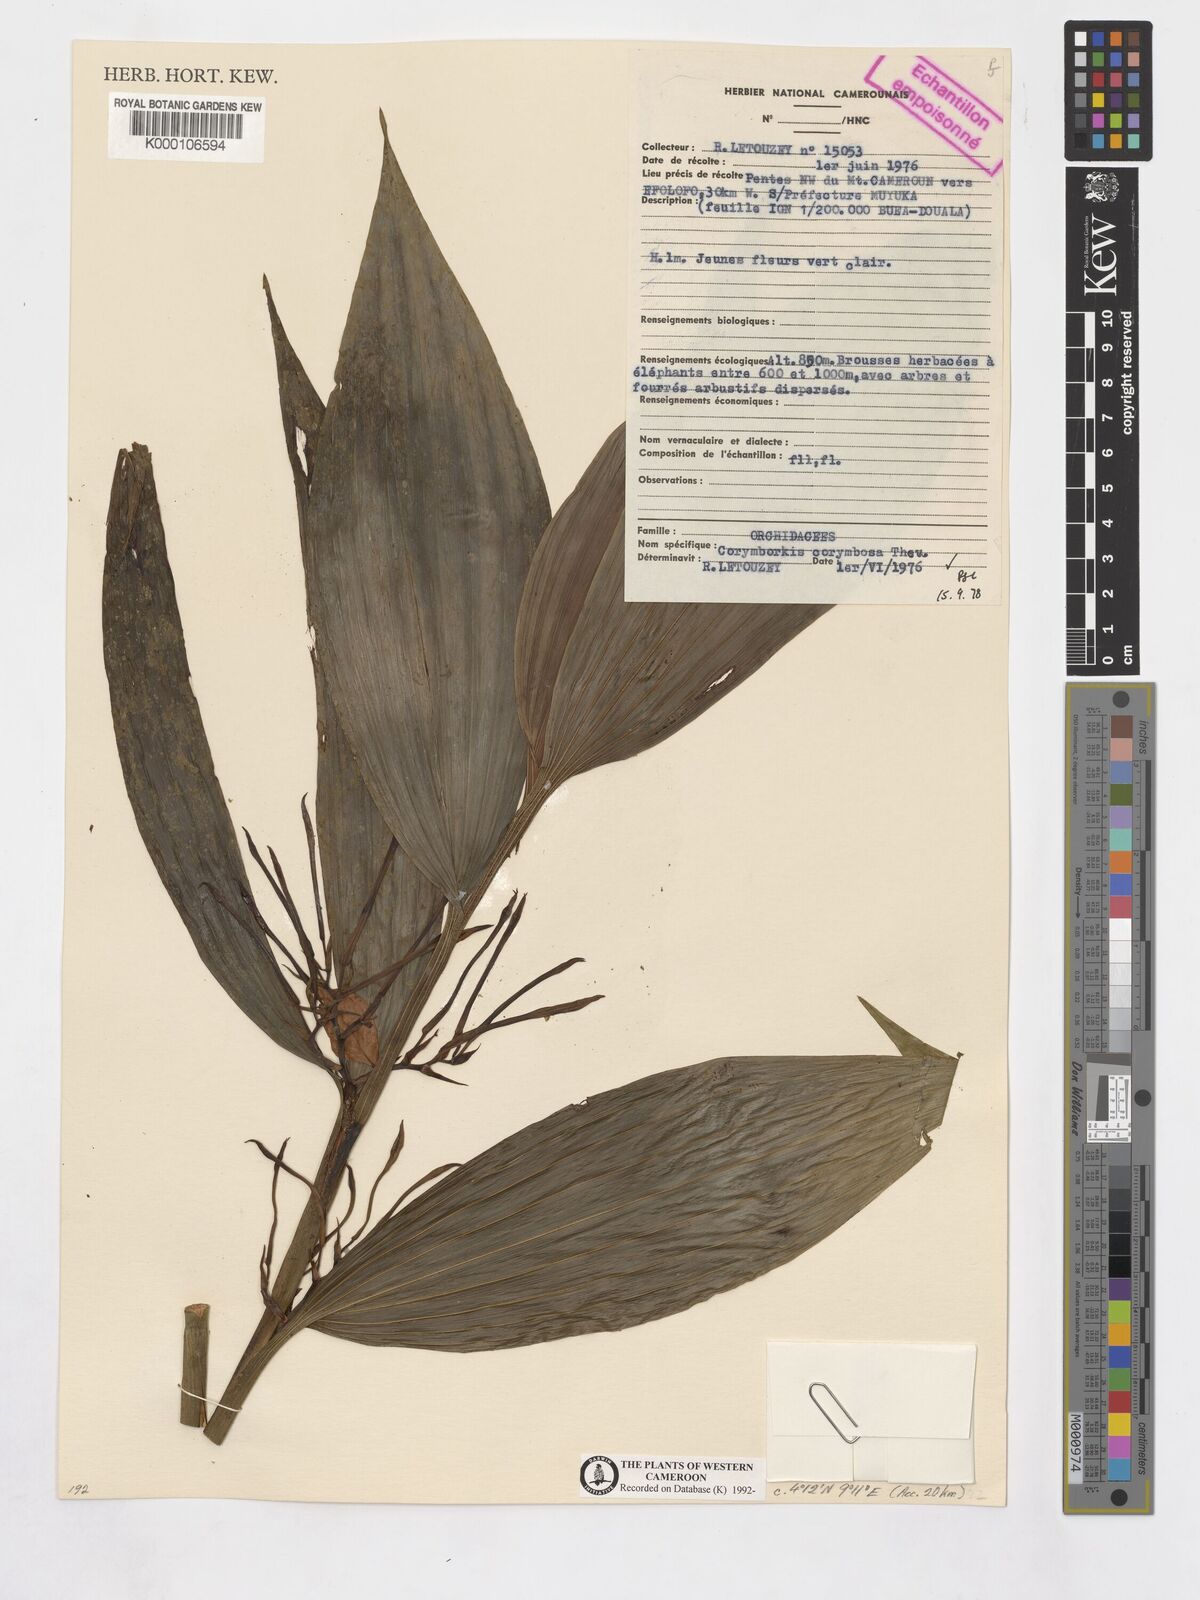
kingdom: Plantae
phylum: Tracheophyta
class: Liliopsida
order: Asparagales
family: Orchidaceae
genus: Corymborkis
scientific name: Corymborkis corymbis
